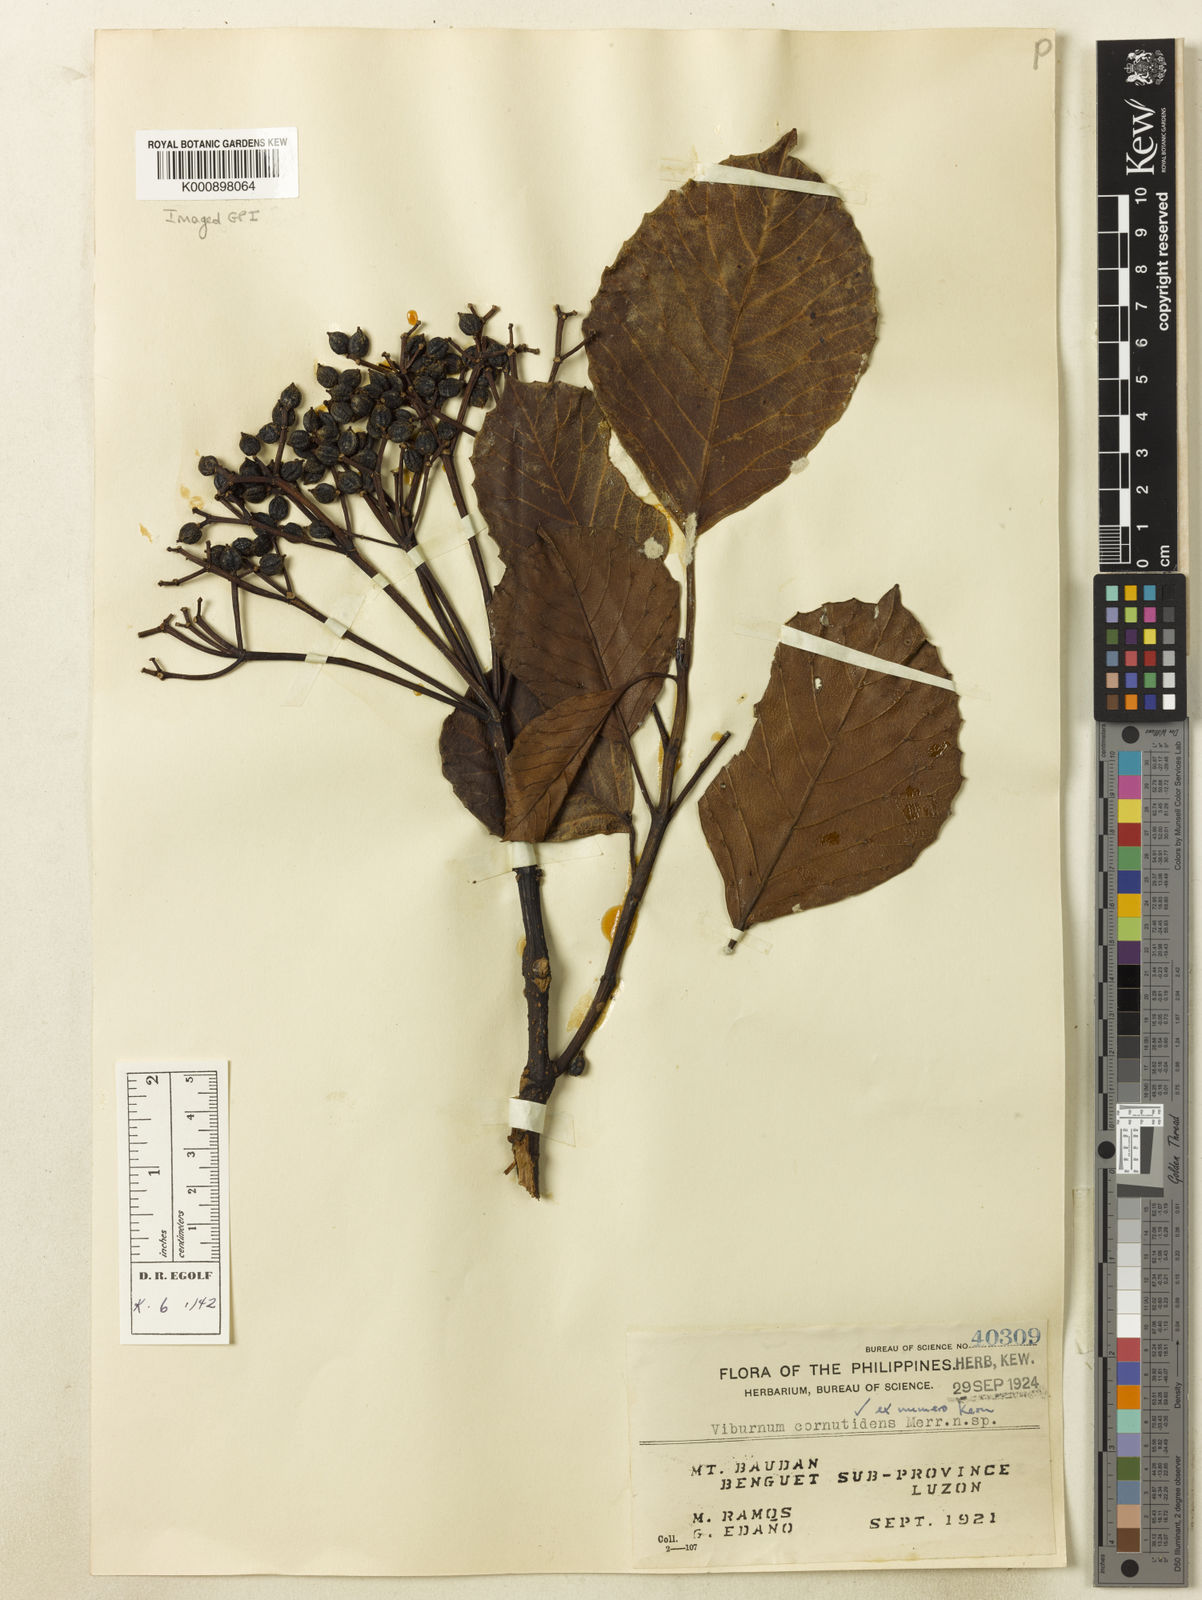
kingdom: Plantae
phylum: Tracheophyta
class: Magnoliopsida
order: Dipsacales
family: Viburnaceae
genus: Viburnum
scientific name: Viburnum cornutidens
